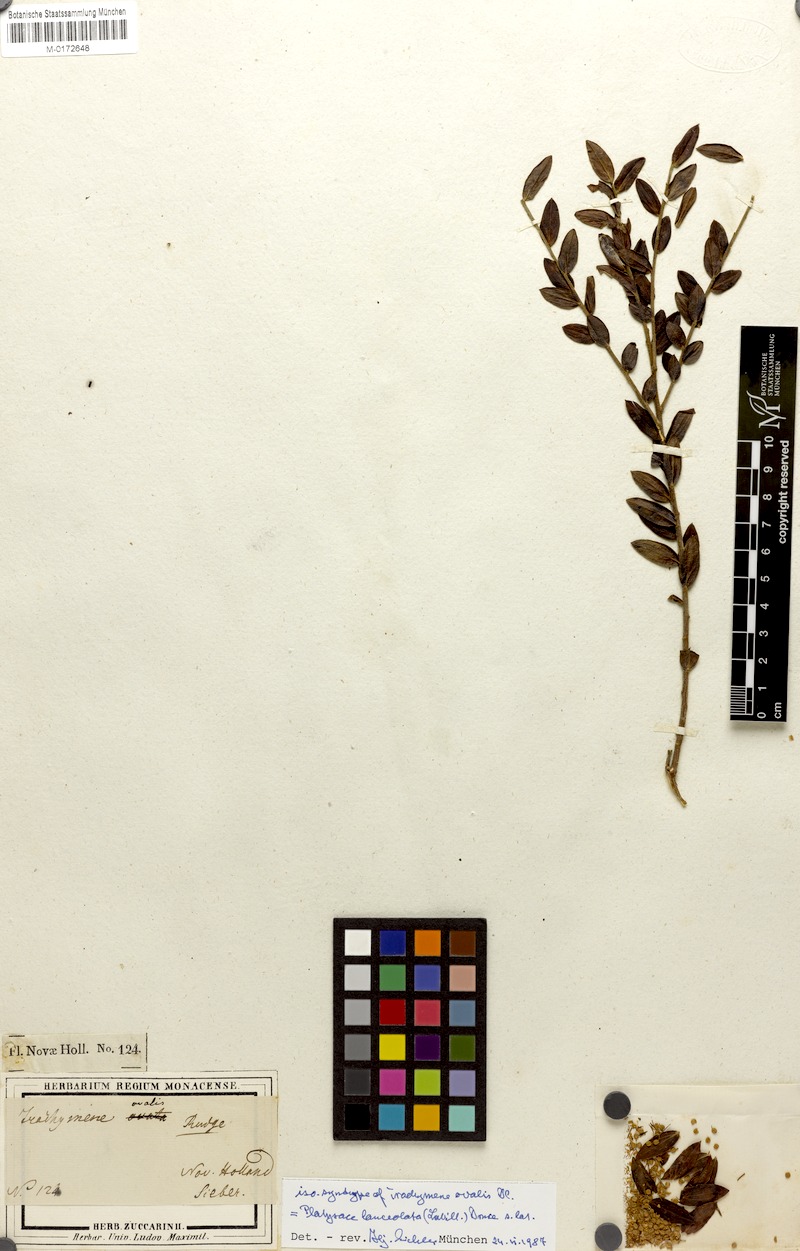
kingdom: Plantae
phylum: Tracheophyta
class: Magnoliopsida
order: Apiales
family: Apiaceae
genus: Platysace
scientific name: Platysace lanceolata
